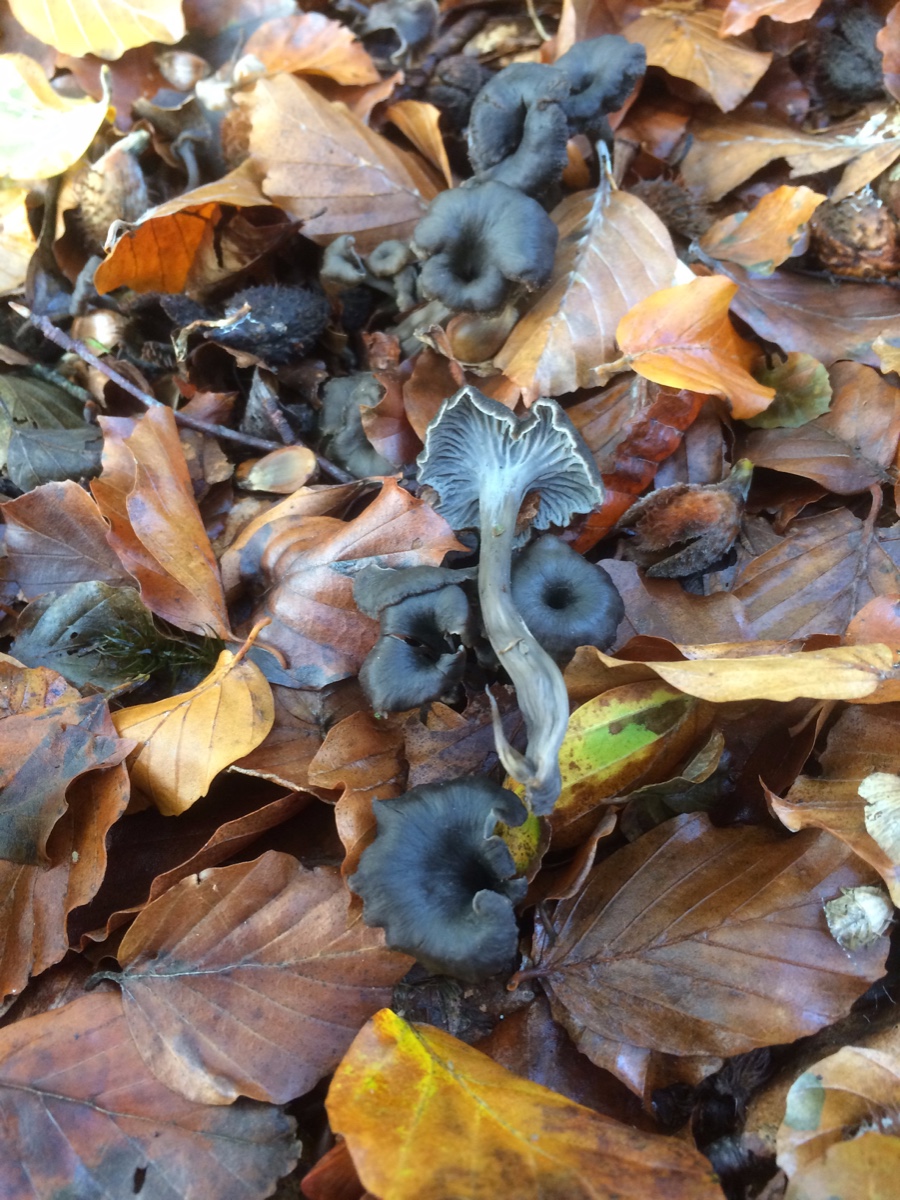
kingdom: Fungi
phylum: Basidiomycota
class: Agaricomycetes
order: Cantharellales
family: Hydnaceae
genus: Cantharellus
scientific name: Cantharellus cinereus
